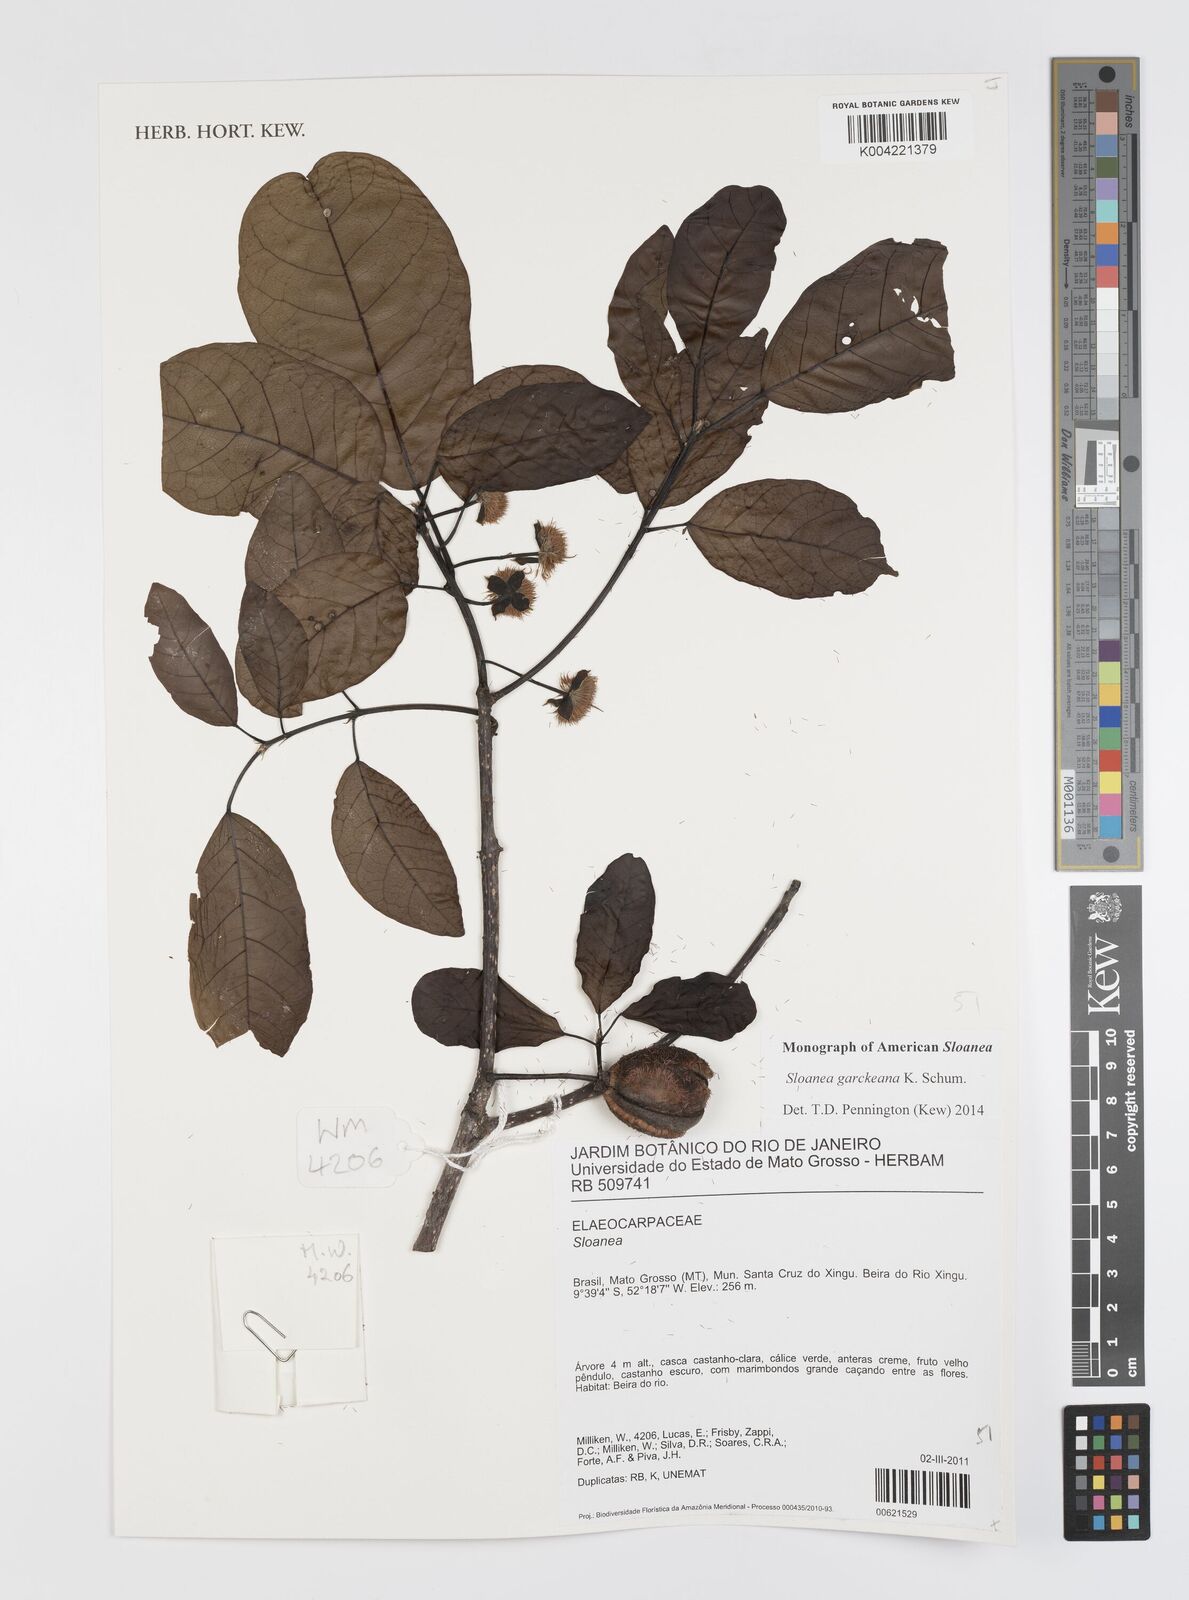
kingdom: Plantae
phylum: Tracheophyta
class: Magnoliopsida
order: Oxalidales
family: Elaeocarpaceae
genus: Sloanea
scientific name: Sloanea garckeana
